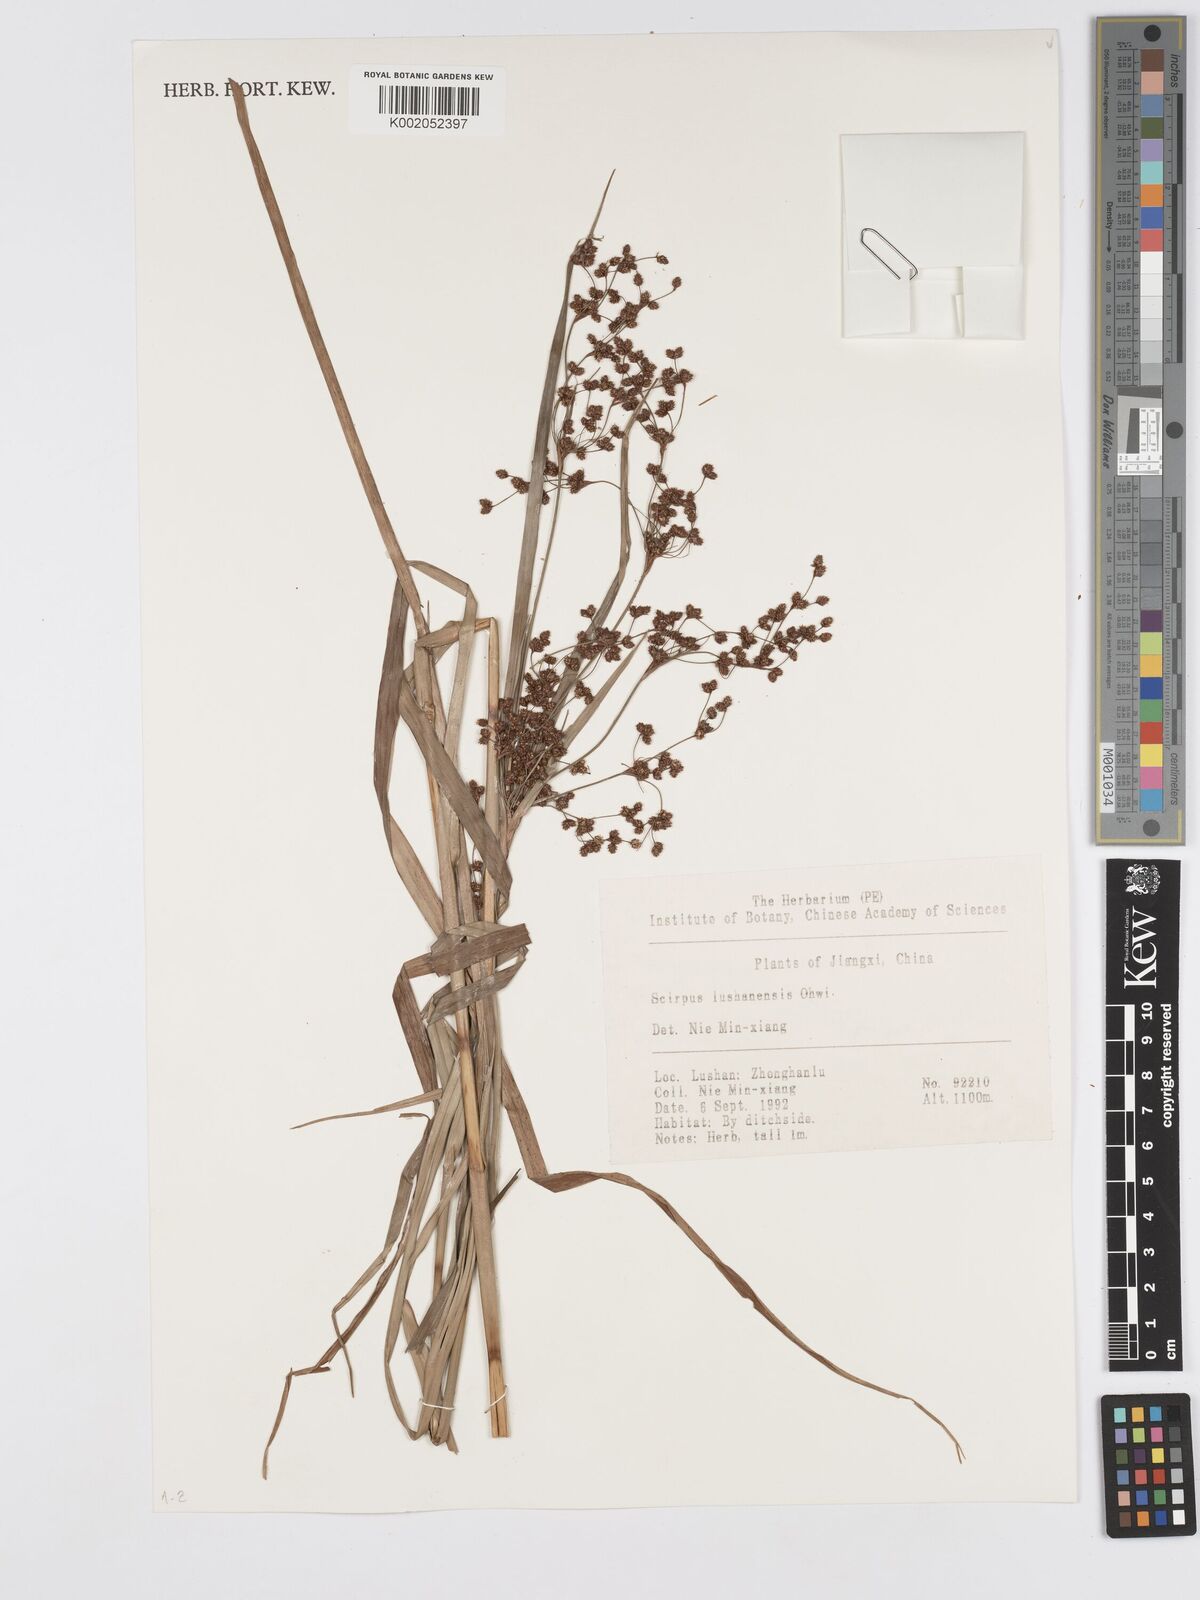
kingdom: Plantae
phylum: Tracheophyta
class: Liliopsida
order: Poales
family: Cyperaceae
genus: Scirpus
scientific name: Scirpus lushanensis
